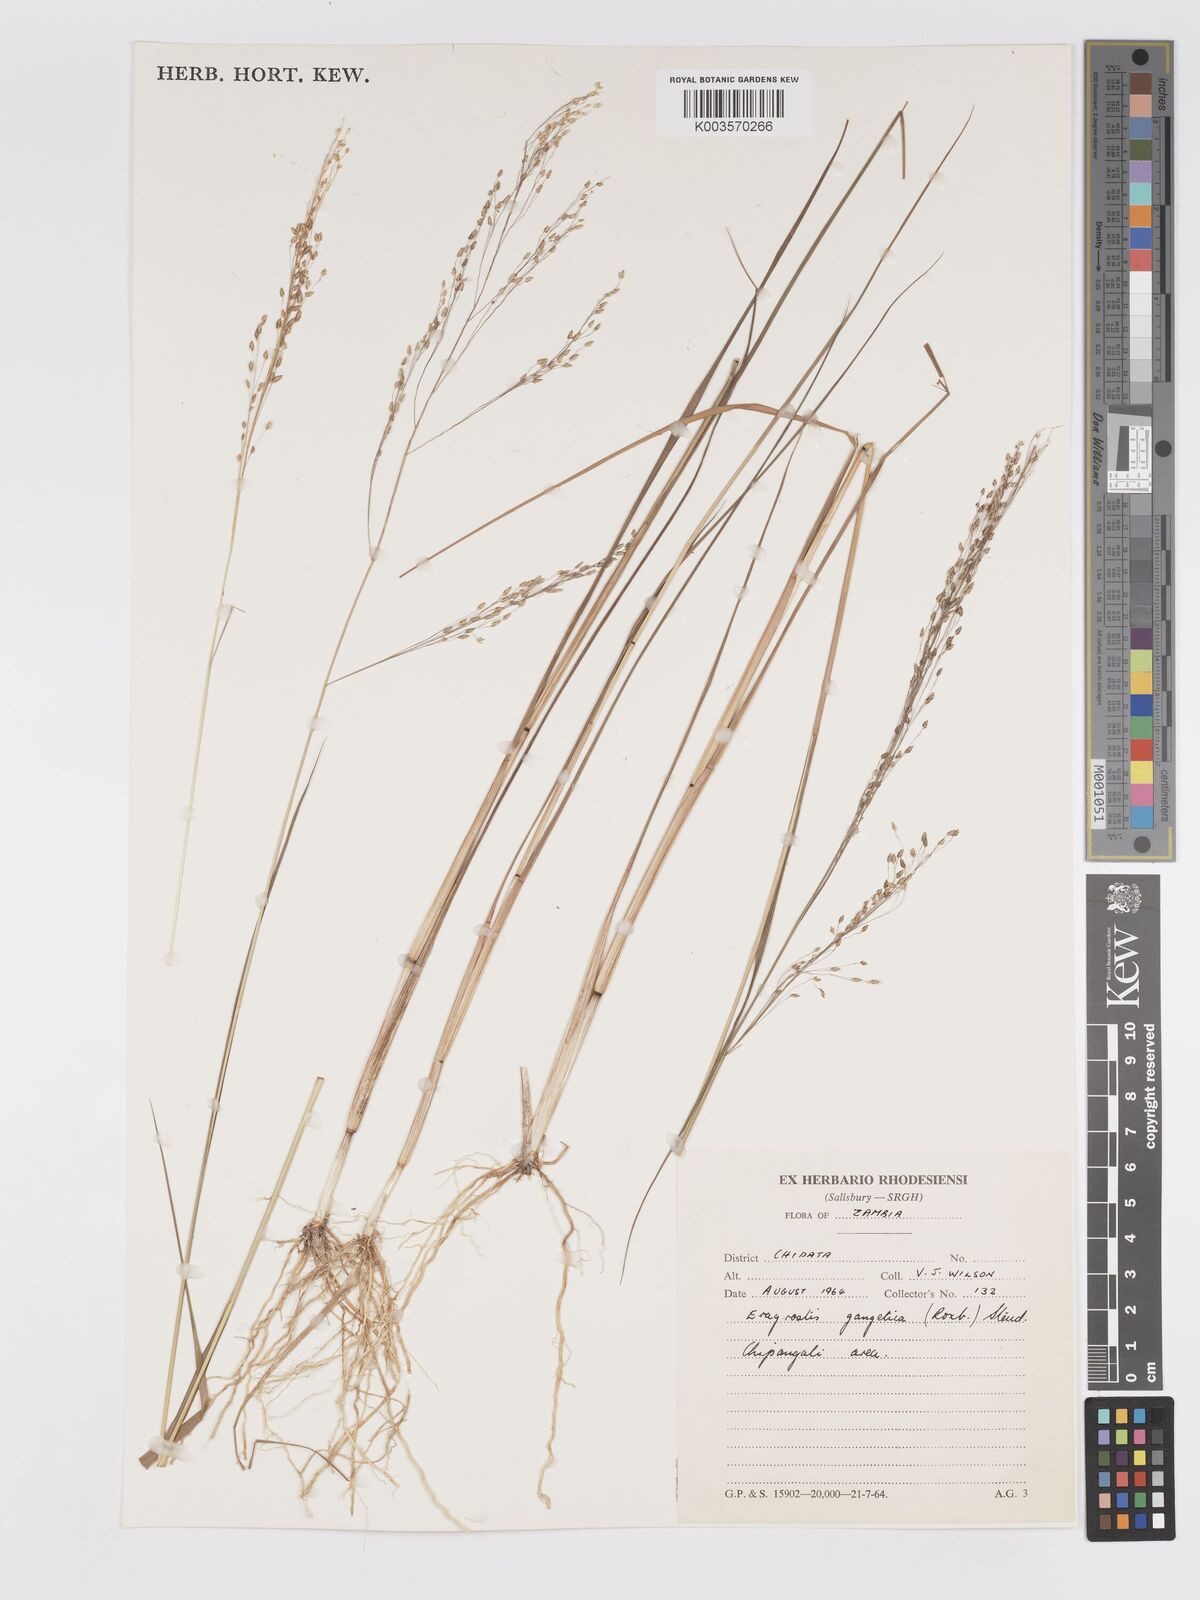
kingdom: Plantae
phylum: Tracheophyta
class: Liliopsida
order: Poales
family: Poaceae
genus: Eragrostis
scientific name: Eragrostis gangetica
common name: Slimflower lovegrass
